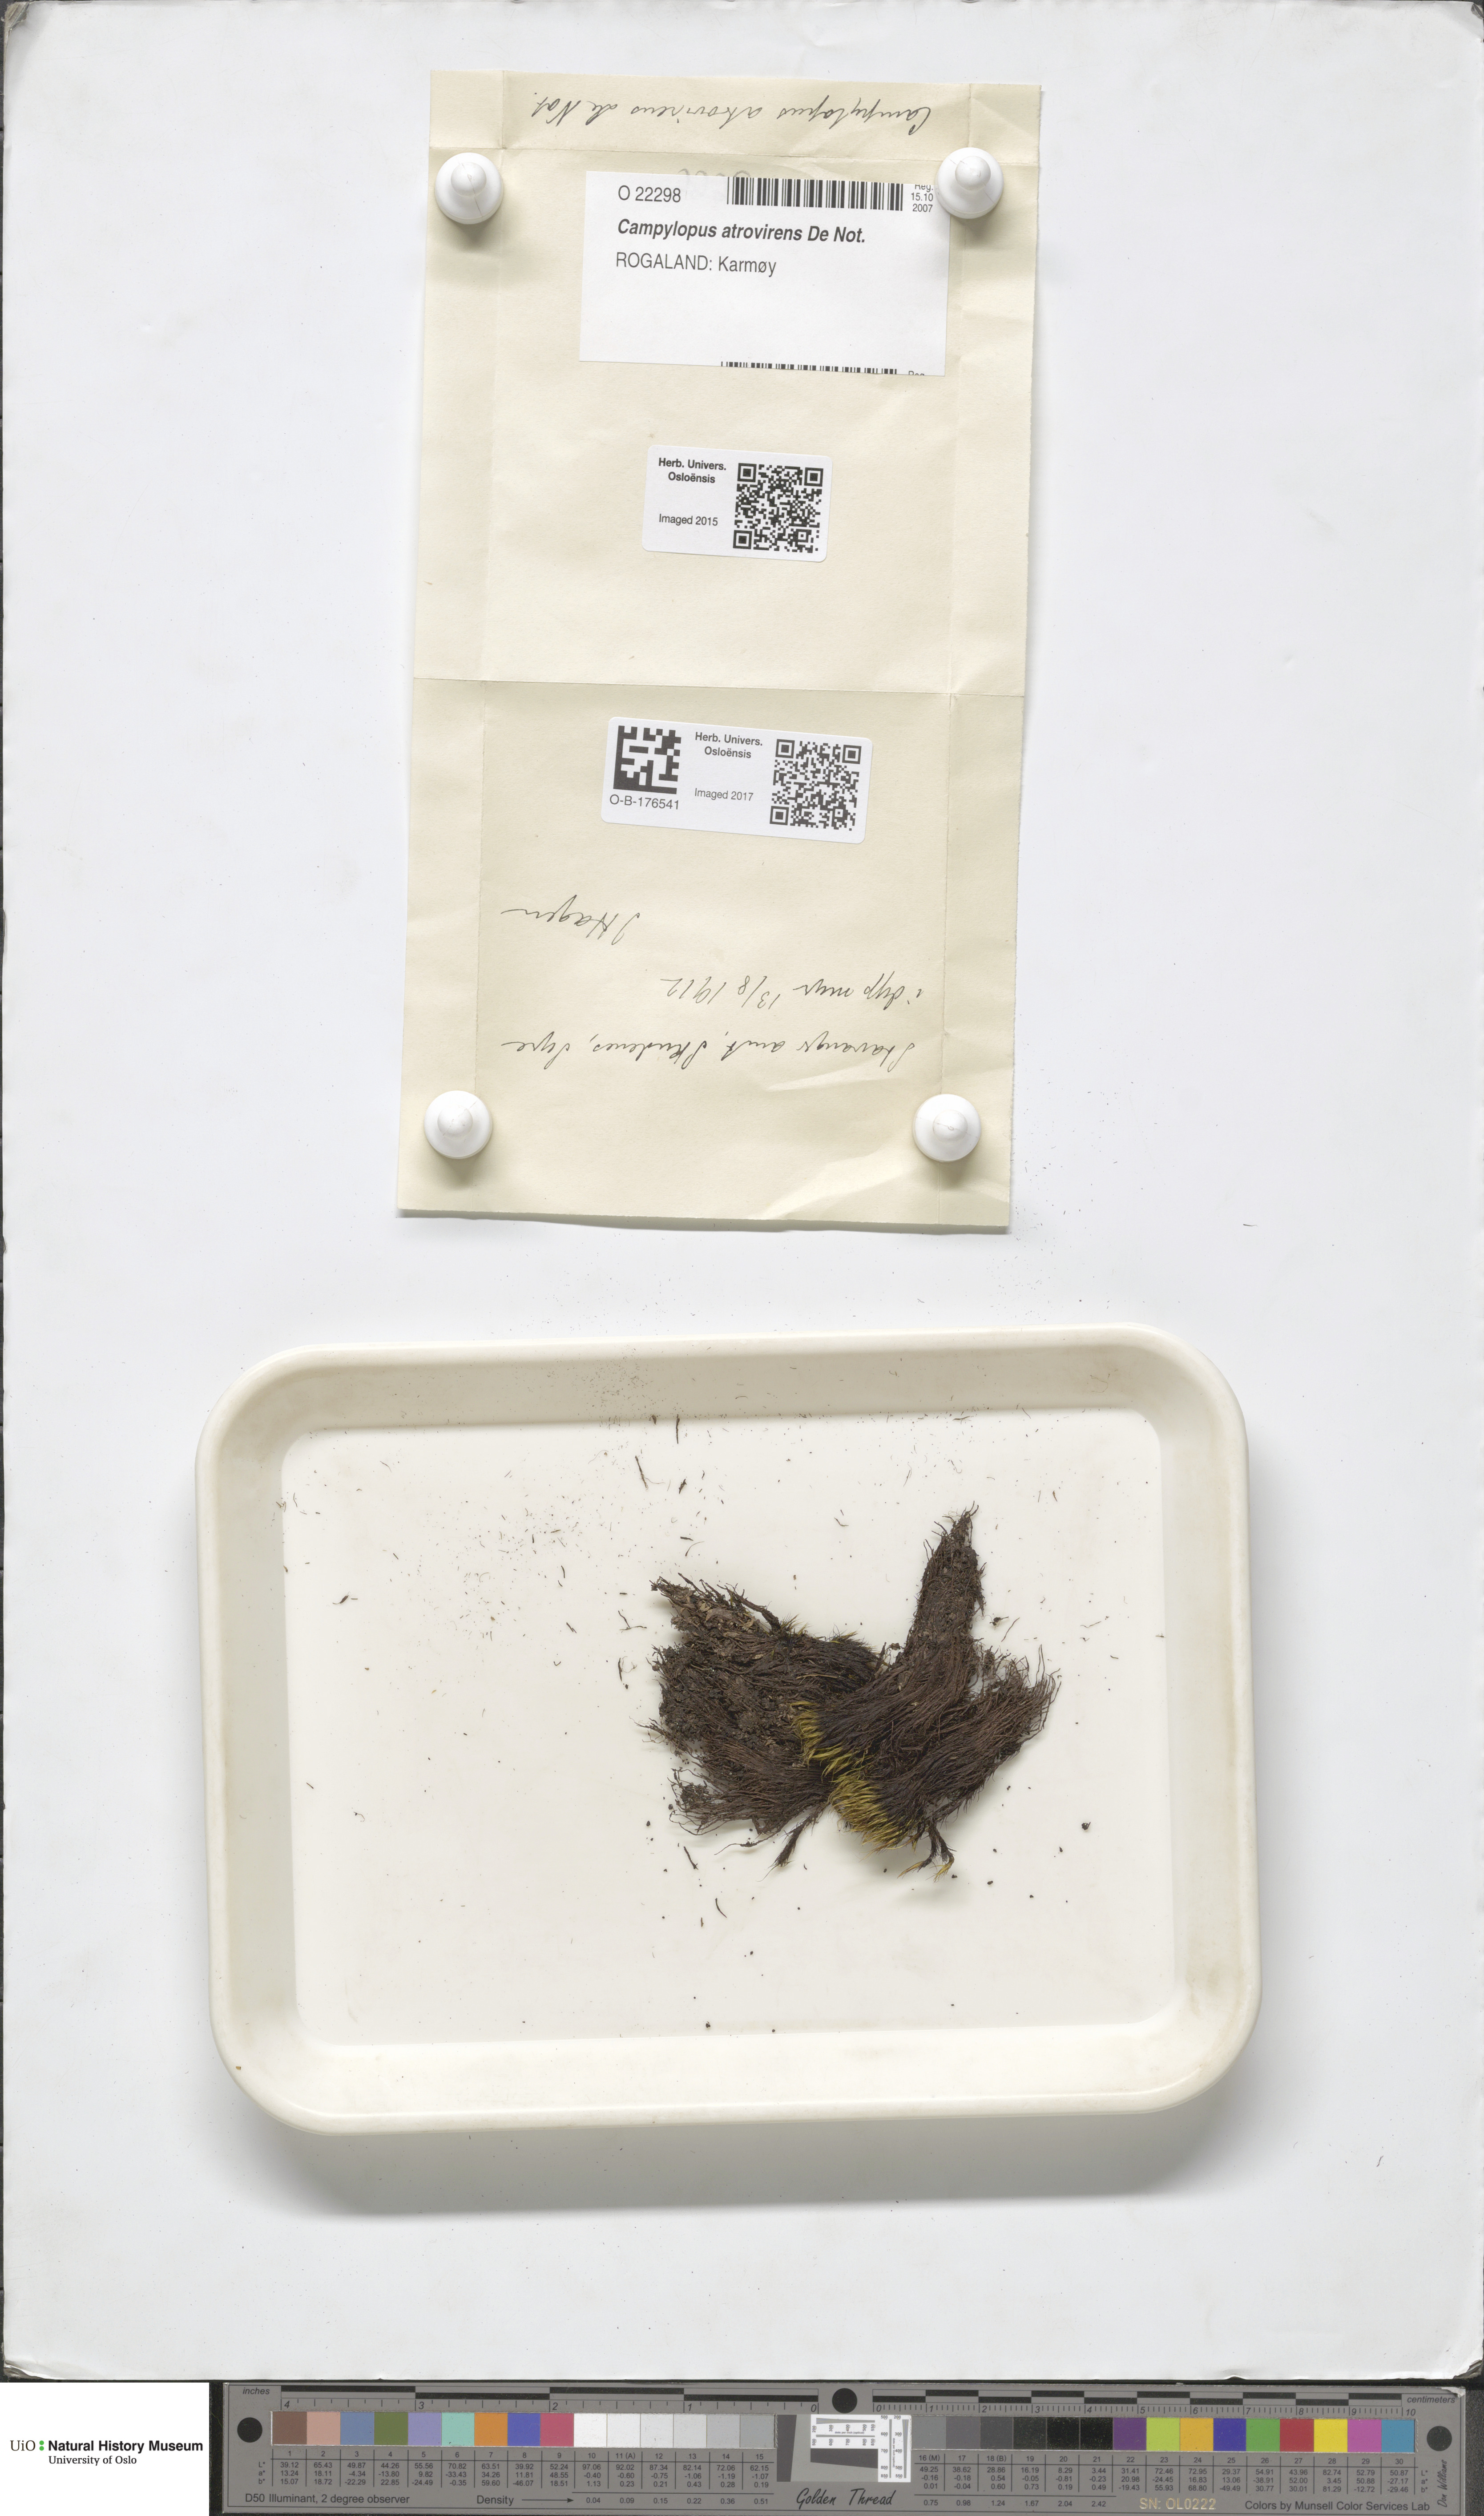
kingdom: Plantae
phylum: Bryophyta
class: Bryopsida
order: Dicranales
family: Leucobryaceae
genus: Campylopus
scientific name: Campylopus atrovirens
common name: Bristly swan-neck moss
